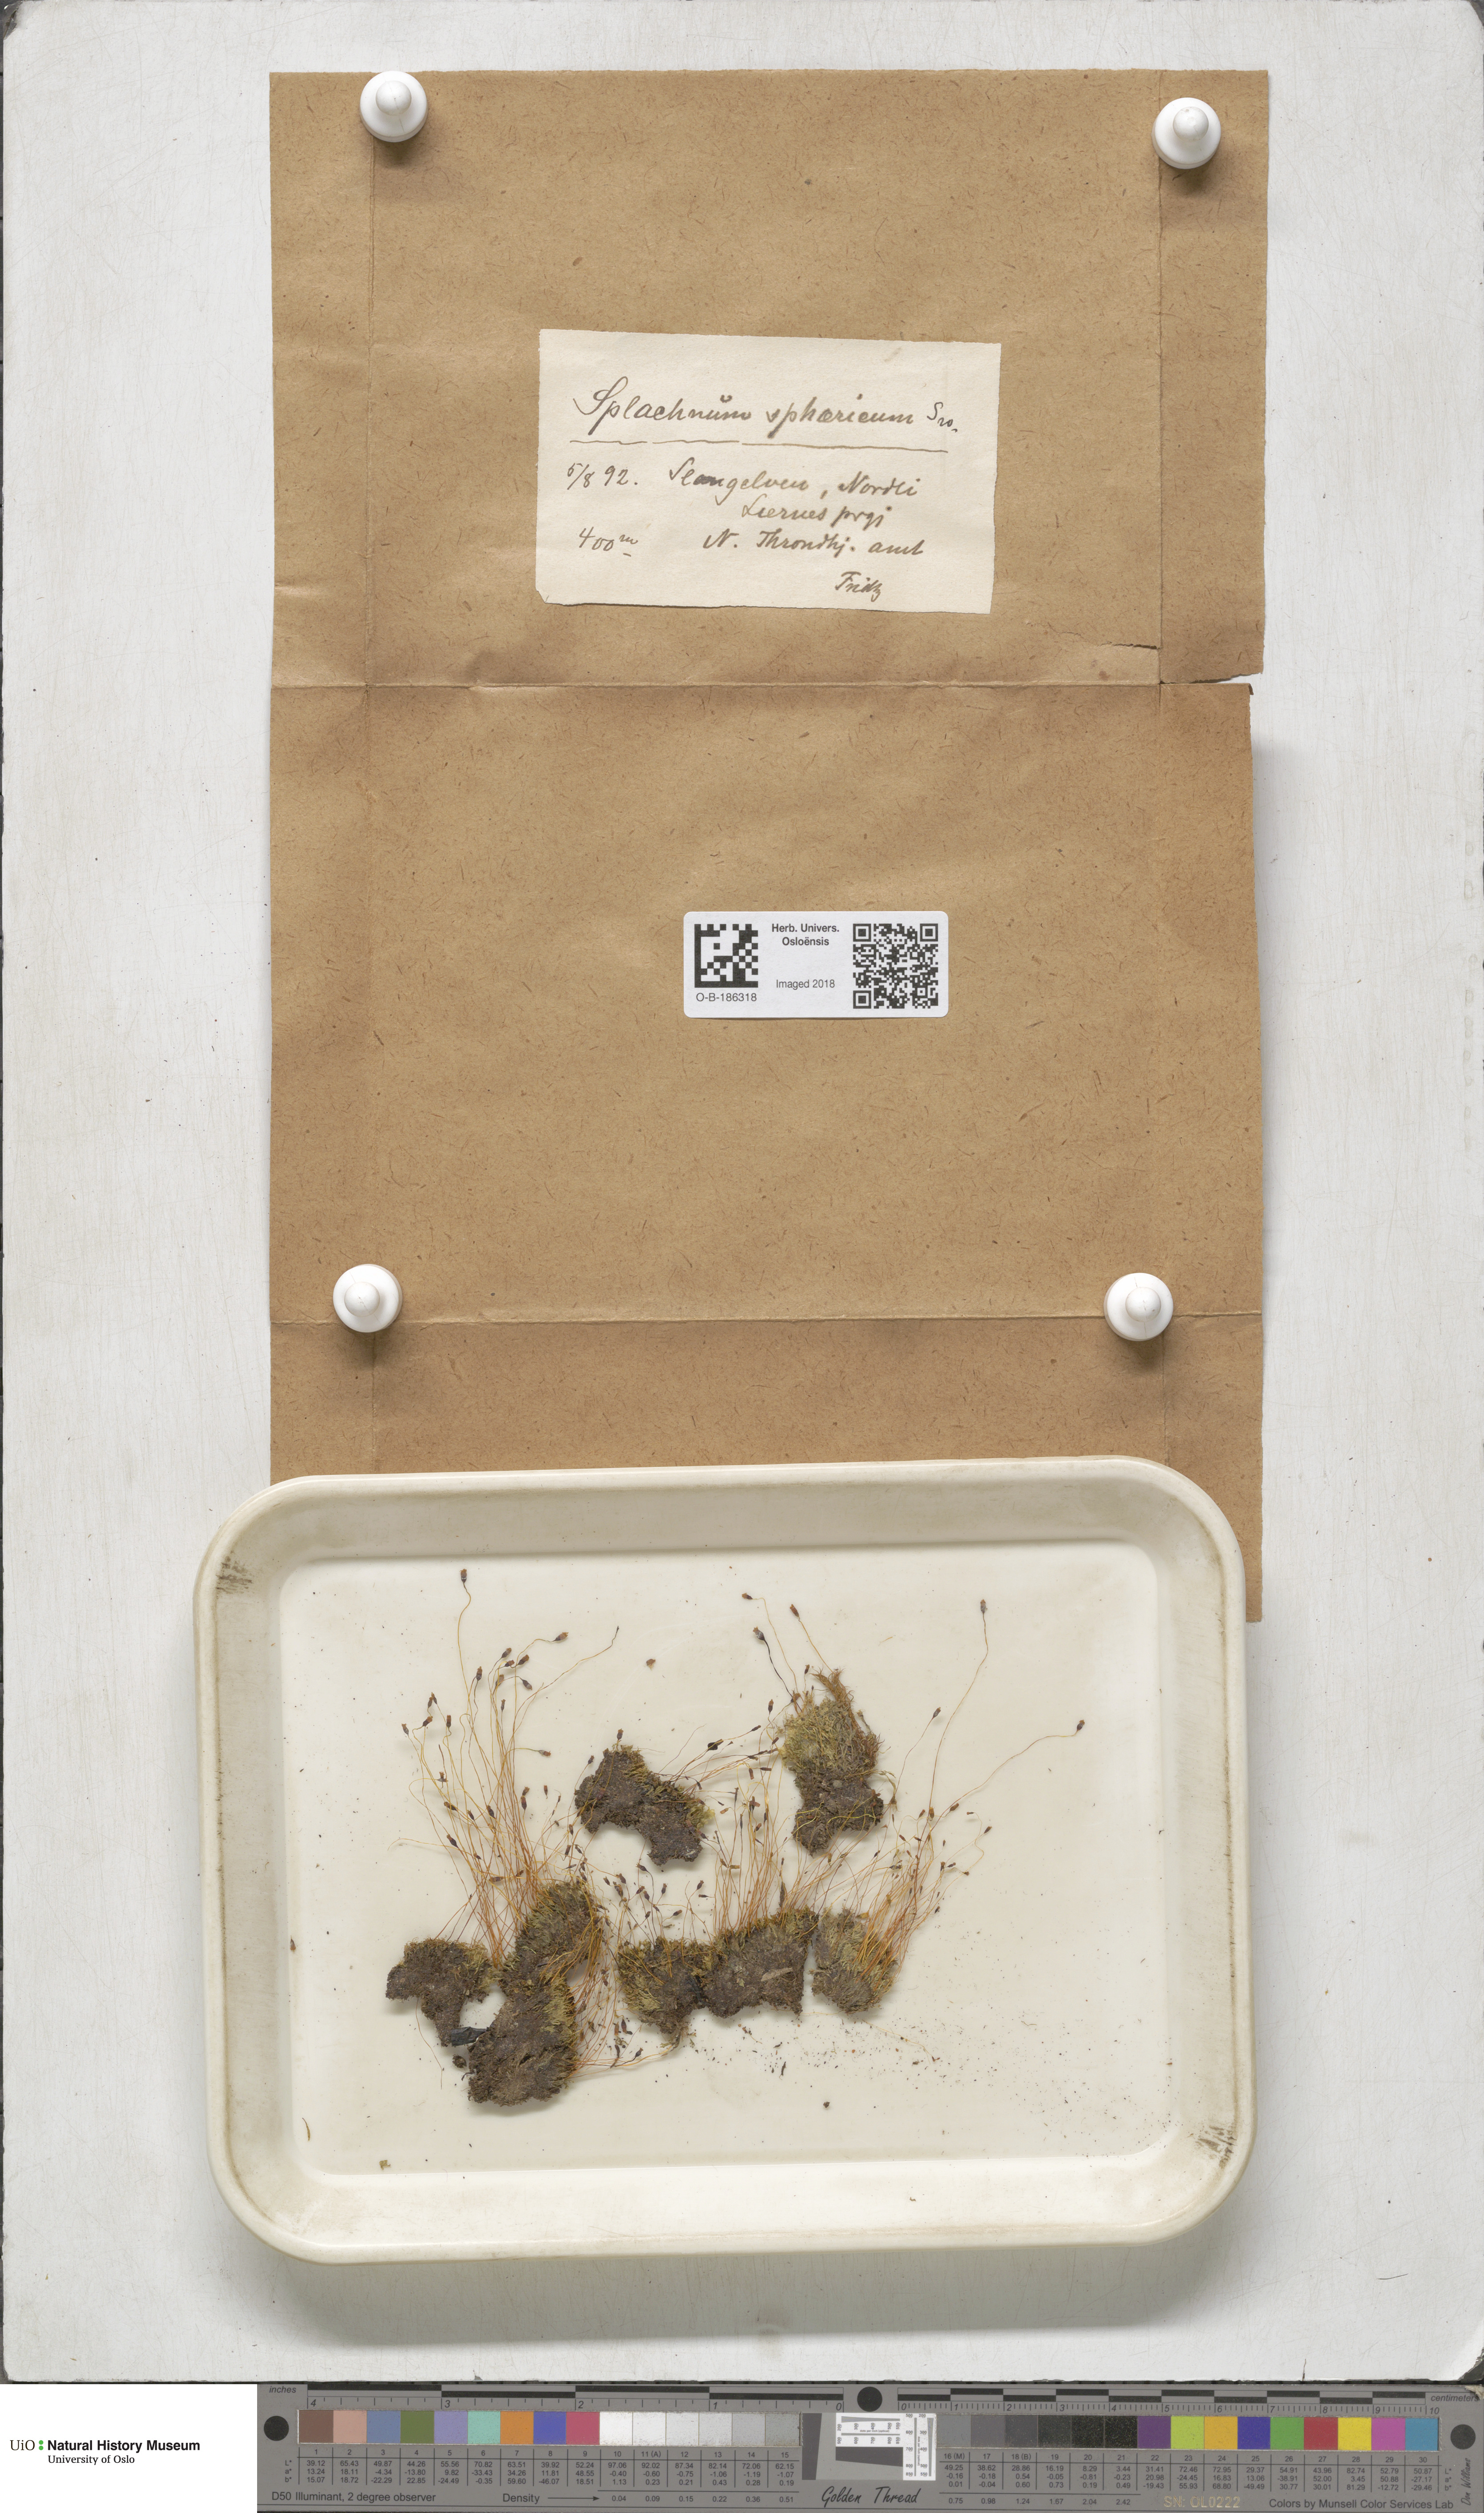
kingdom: Plantae
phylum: Bryophyta
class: Bryopsida
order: Splachnales
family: Splachnaceae
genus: Splachnum
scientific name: Splachnum sphaericum
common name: Round-fruited dung moss
